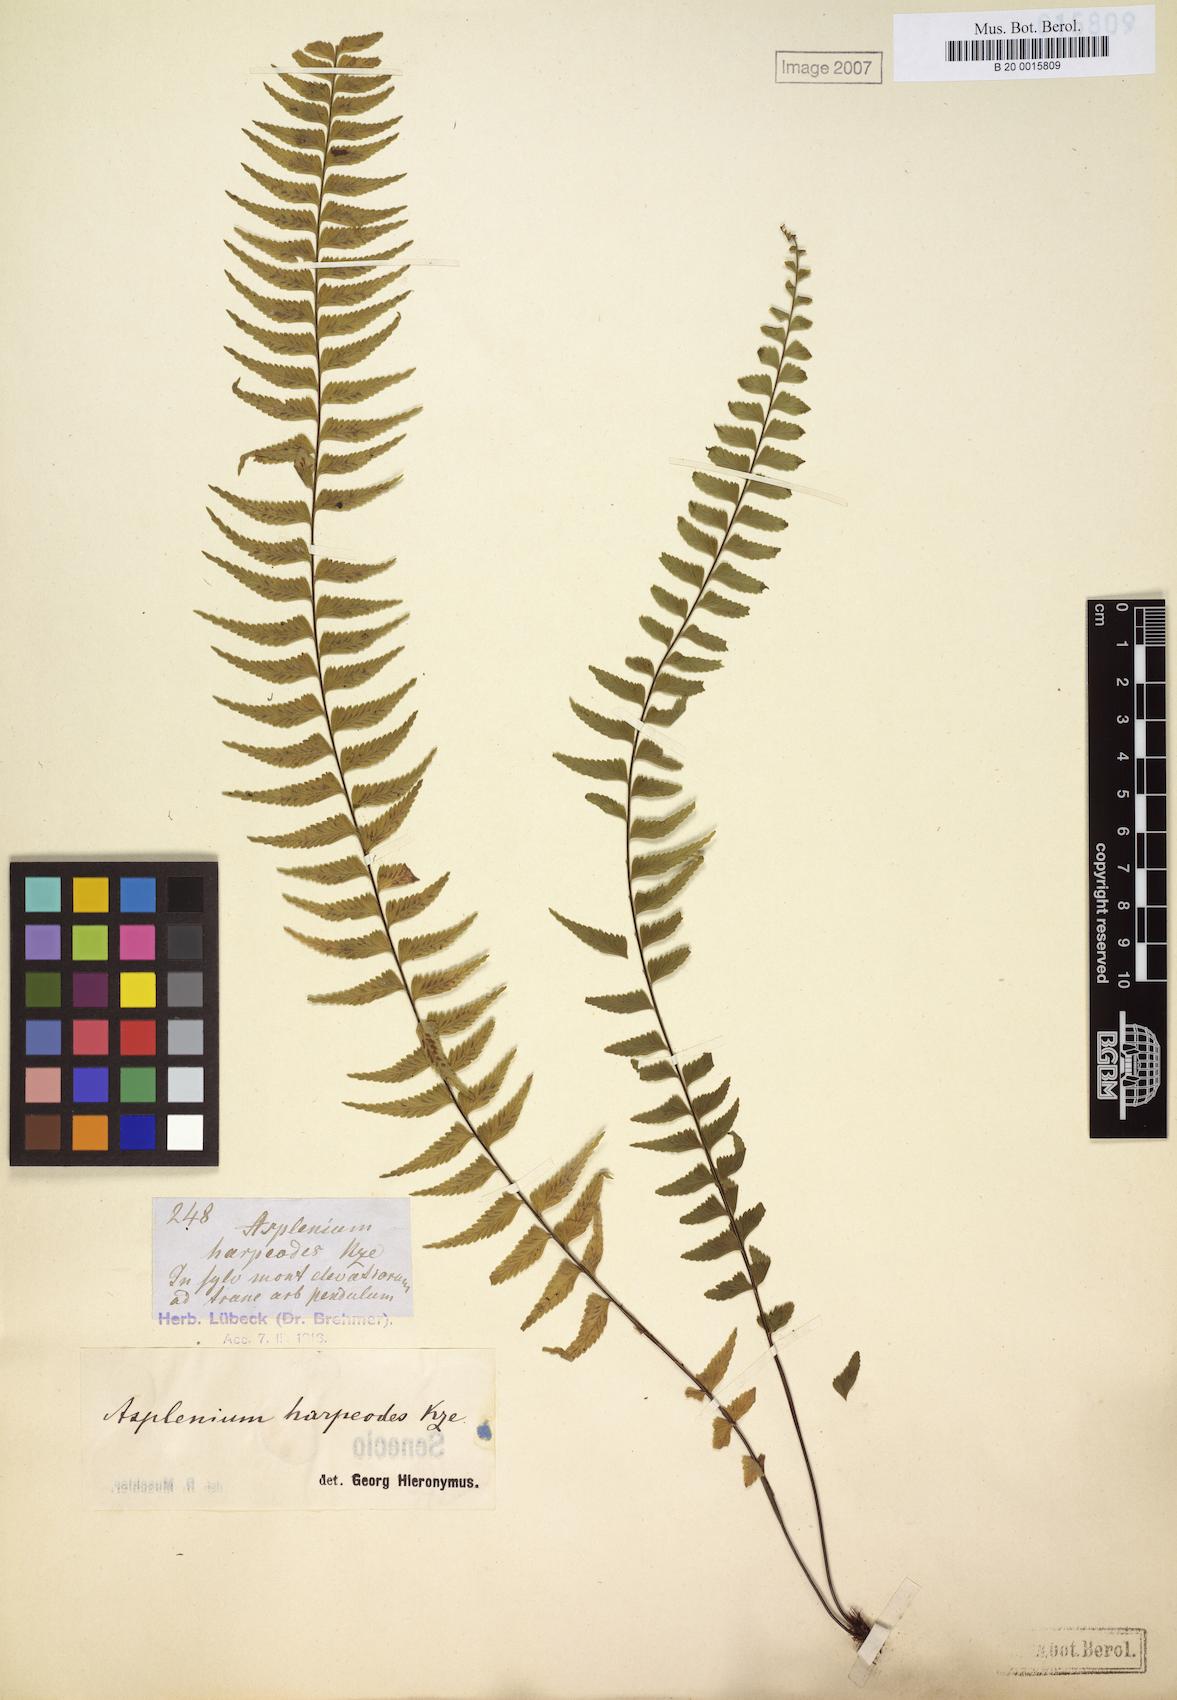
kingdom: Plantae
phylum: Tracheophyta
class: Polypodiopsida
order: Polypodiales
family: Aspleniaceae
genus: Asplenium
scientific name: Asplenium harpeodes
